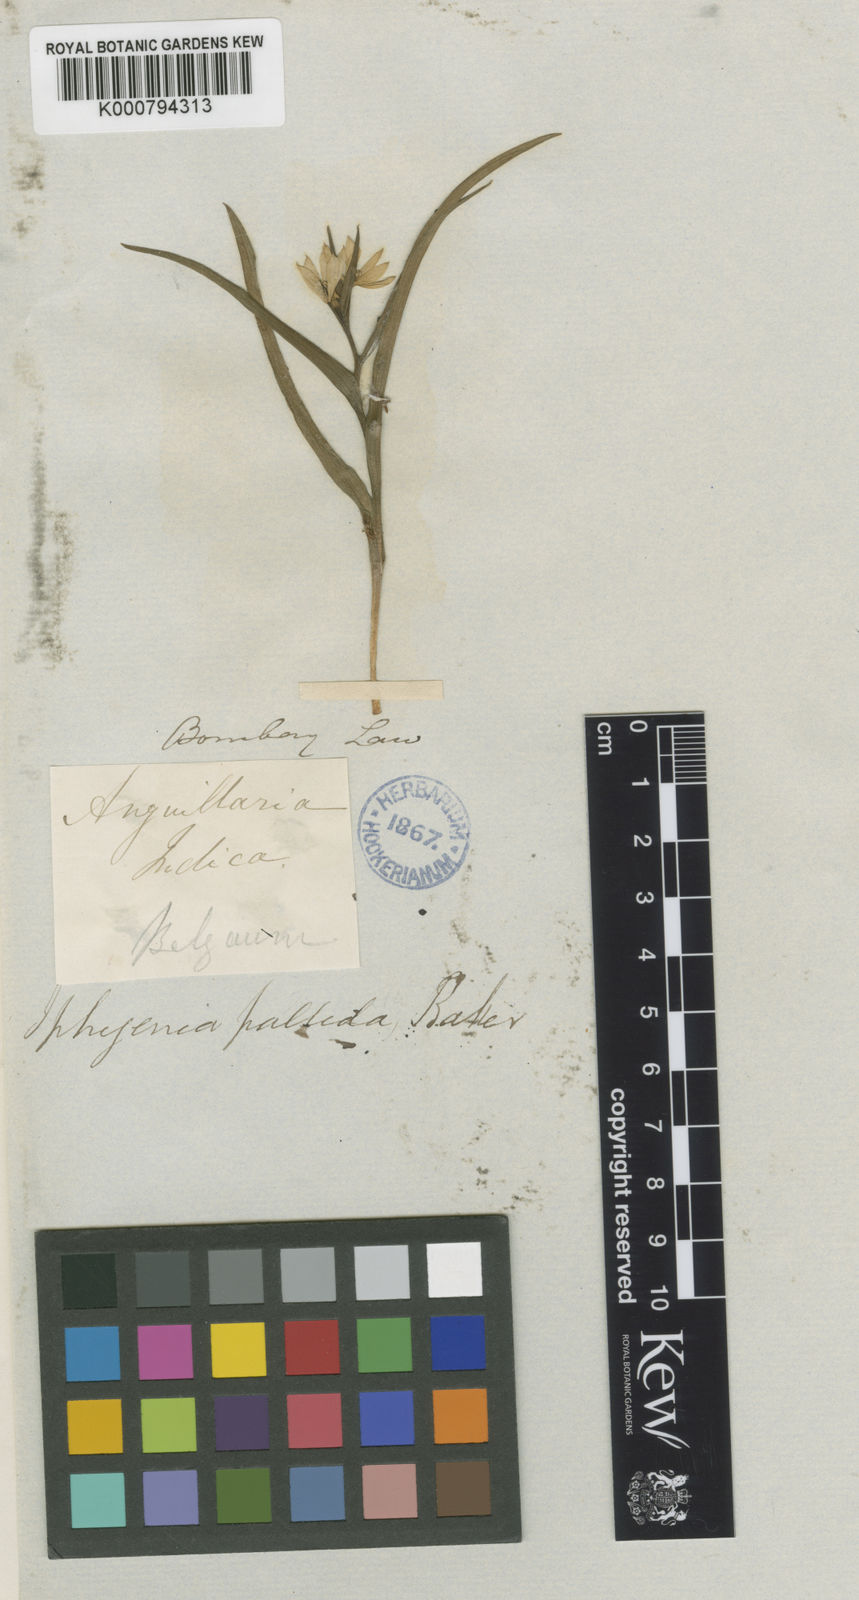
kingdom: Plantae
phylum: Tracheophyta
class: Liliopsida
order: Liliales
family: Colchicaceae
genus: Iphigenia
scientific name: Iphigenia pallida
